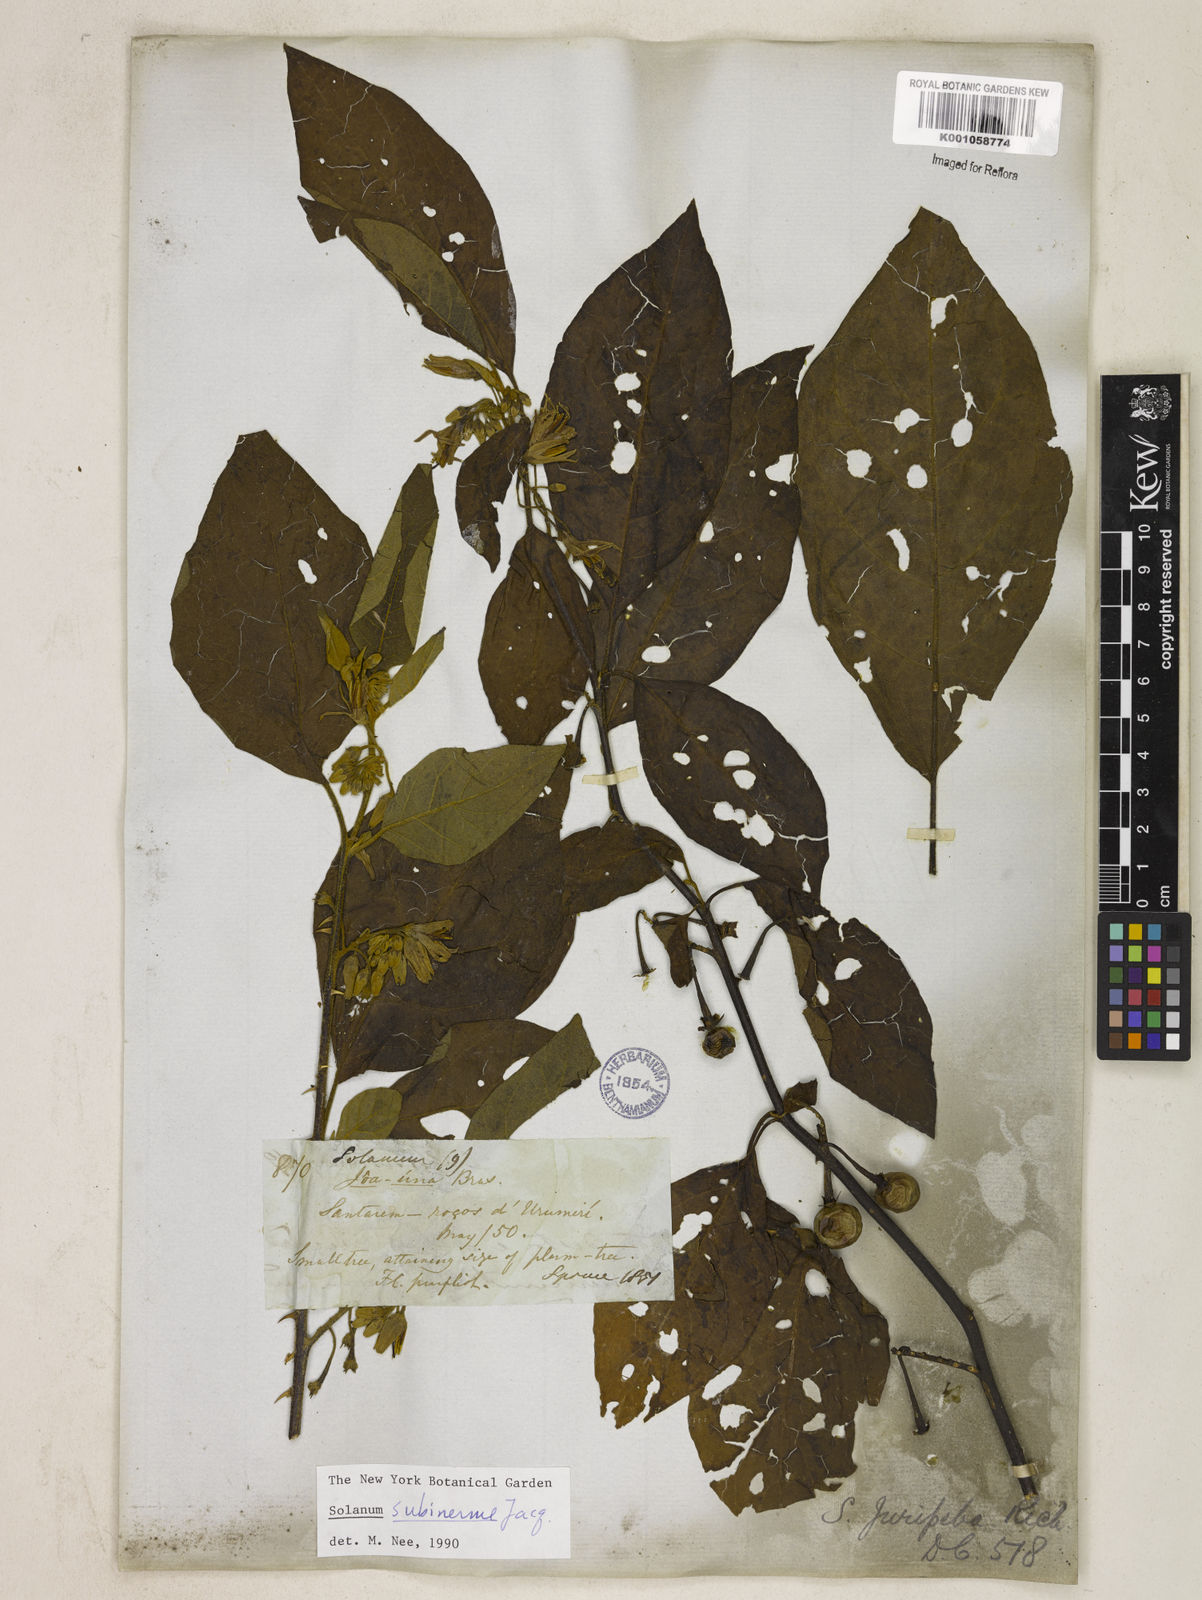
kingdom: Plantae
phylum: Tracheophyta
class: Magnoliopsida
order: Solanales
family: Solanaceae
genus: Solanum
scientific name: Solanum subinerme
